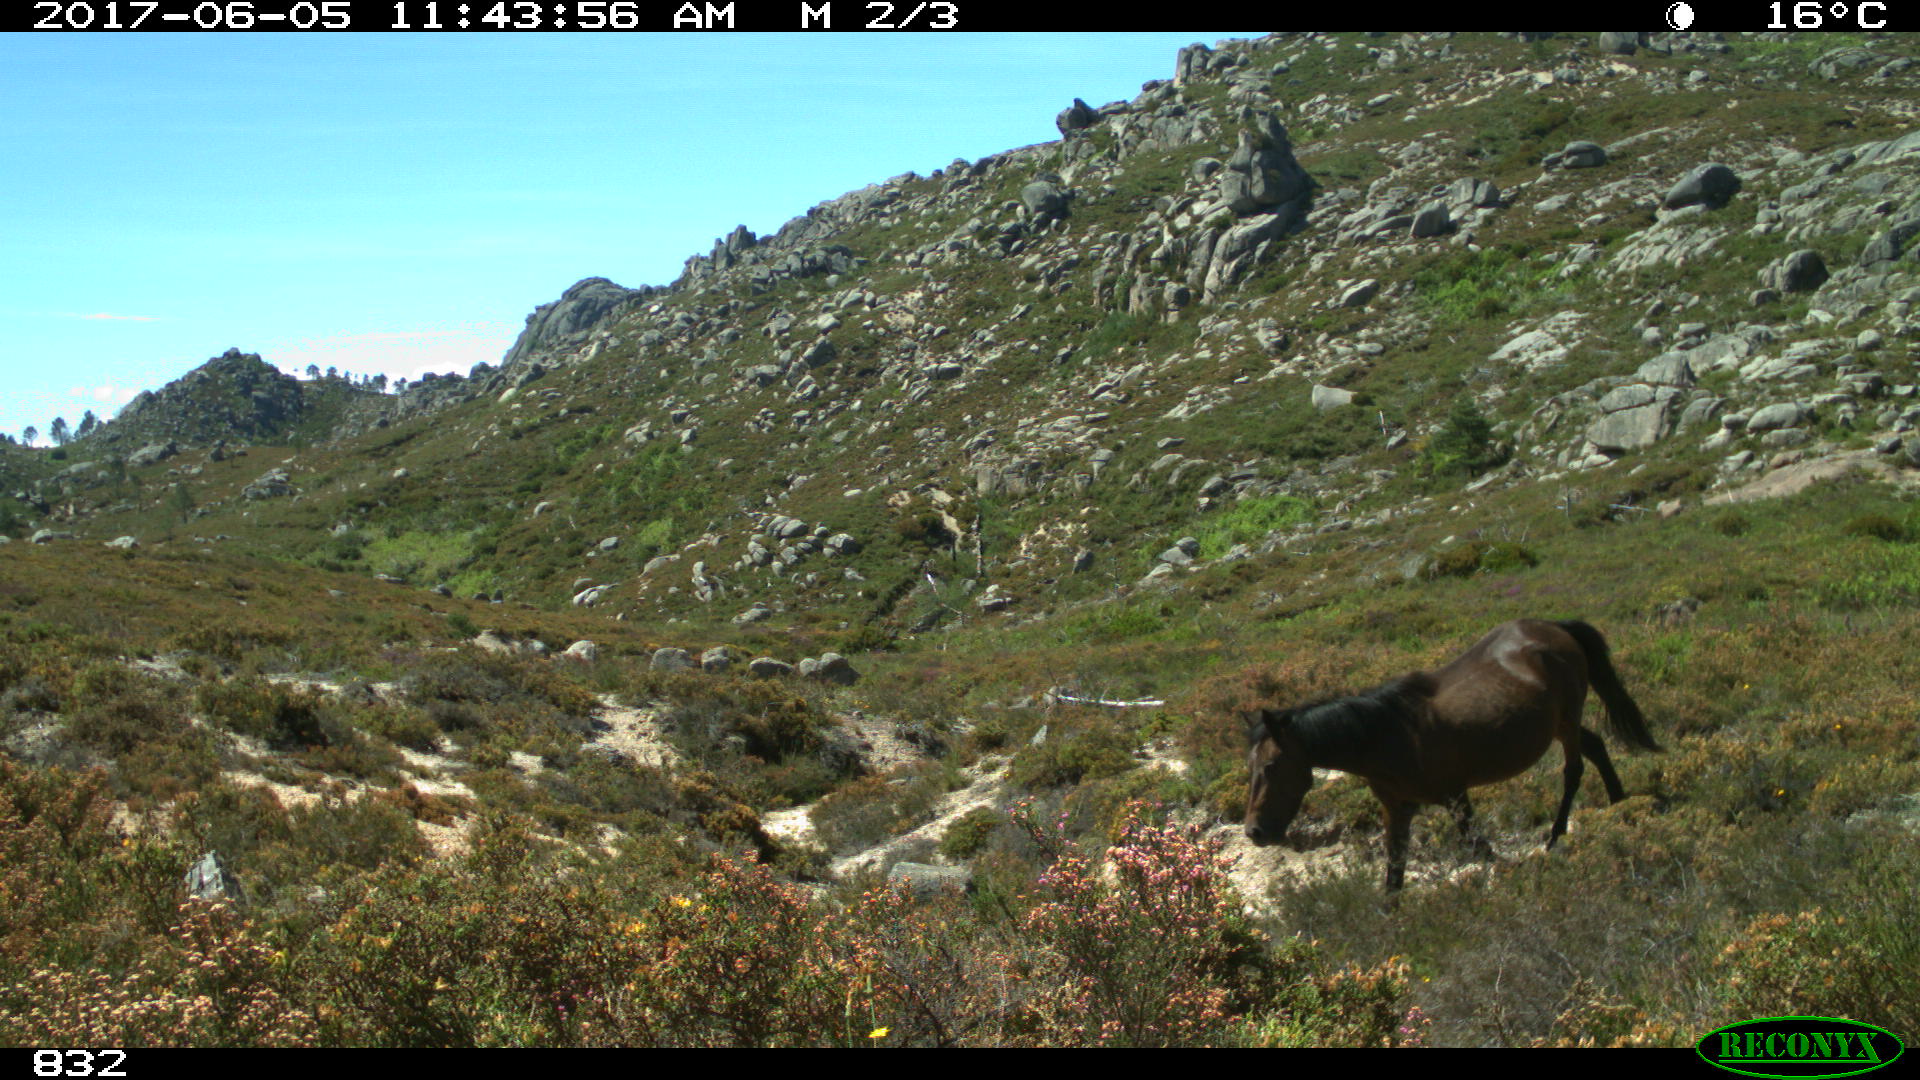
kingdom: Animalia
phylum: Chordata
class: Mammalia
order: Perissodactyla
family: Equidae
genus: Equus
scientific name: Equus caballus
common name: Horse
